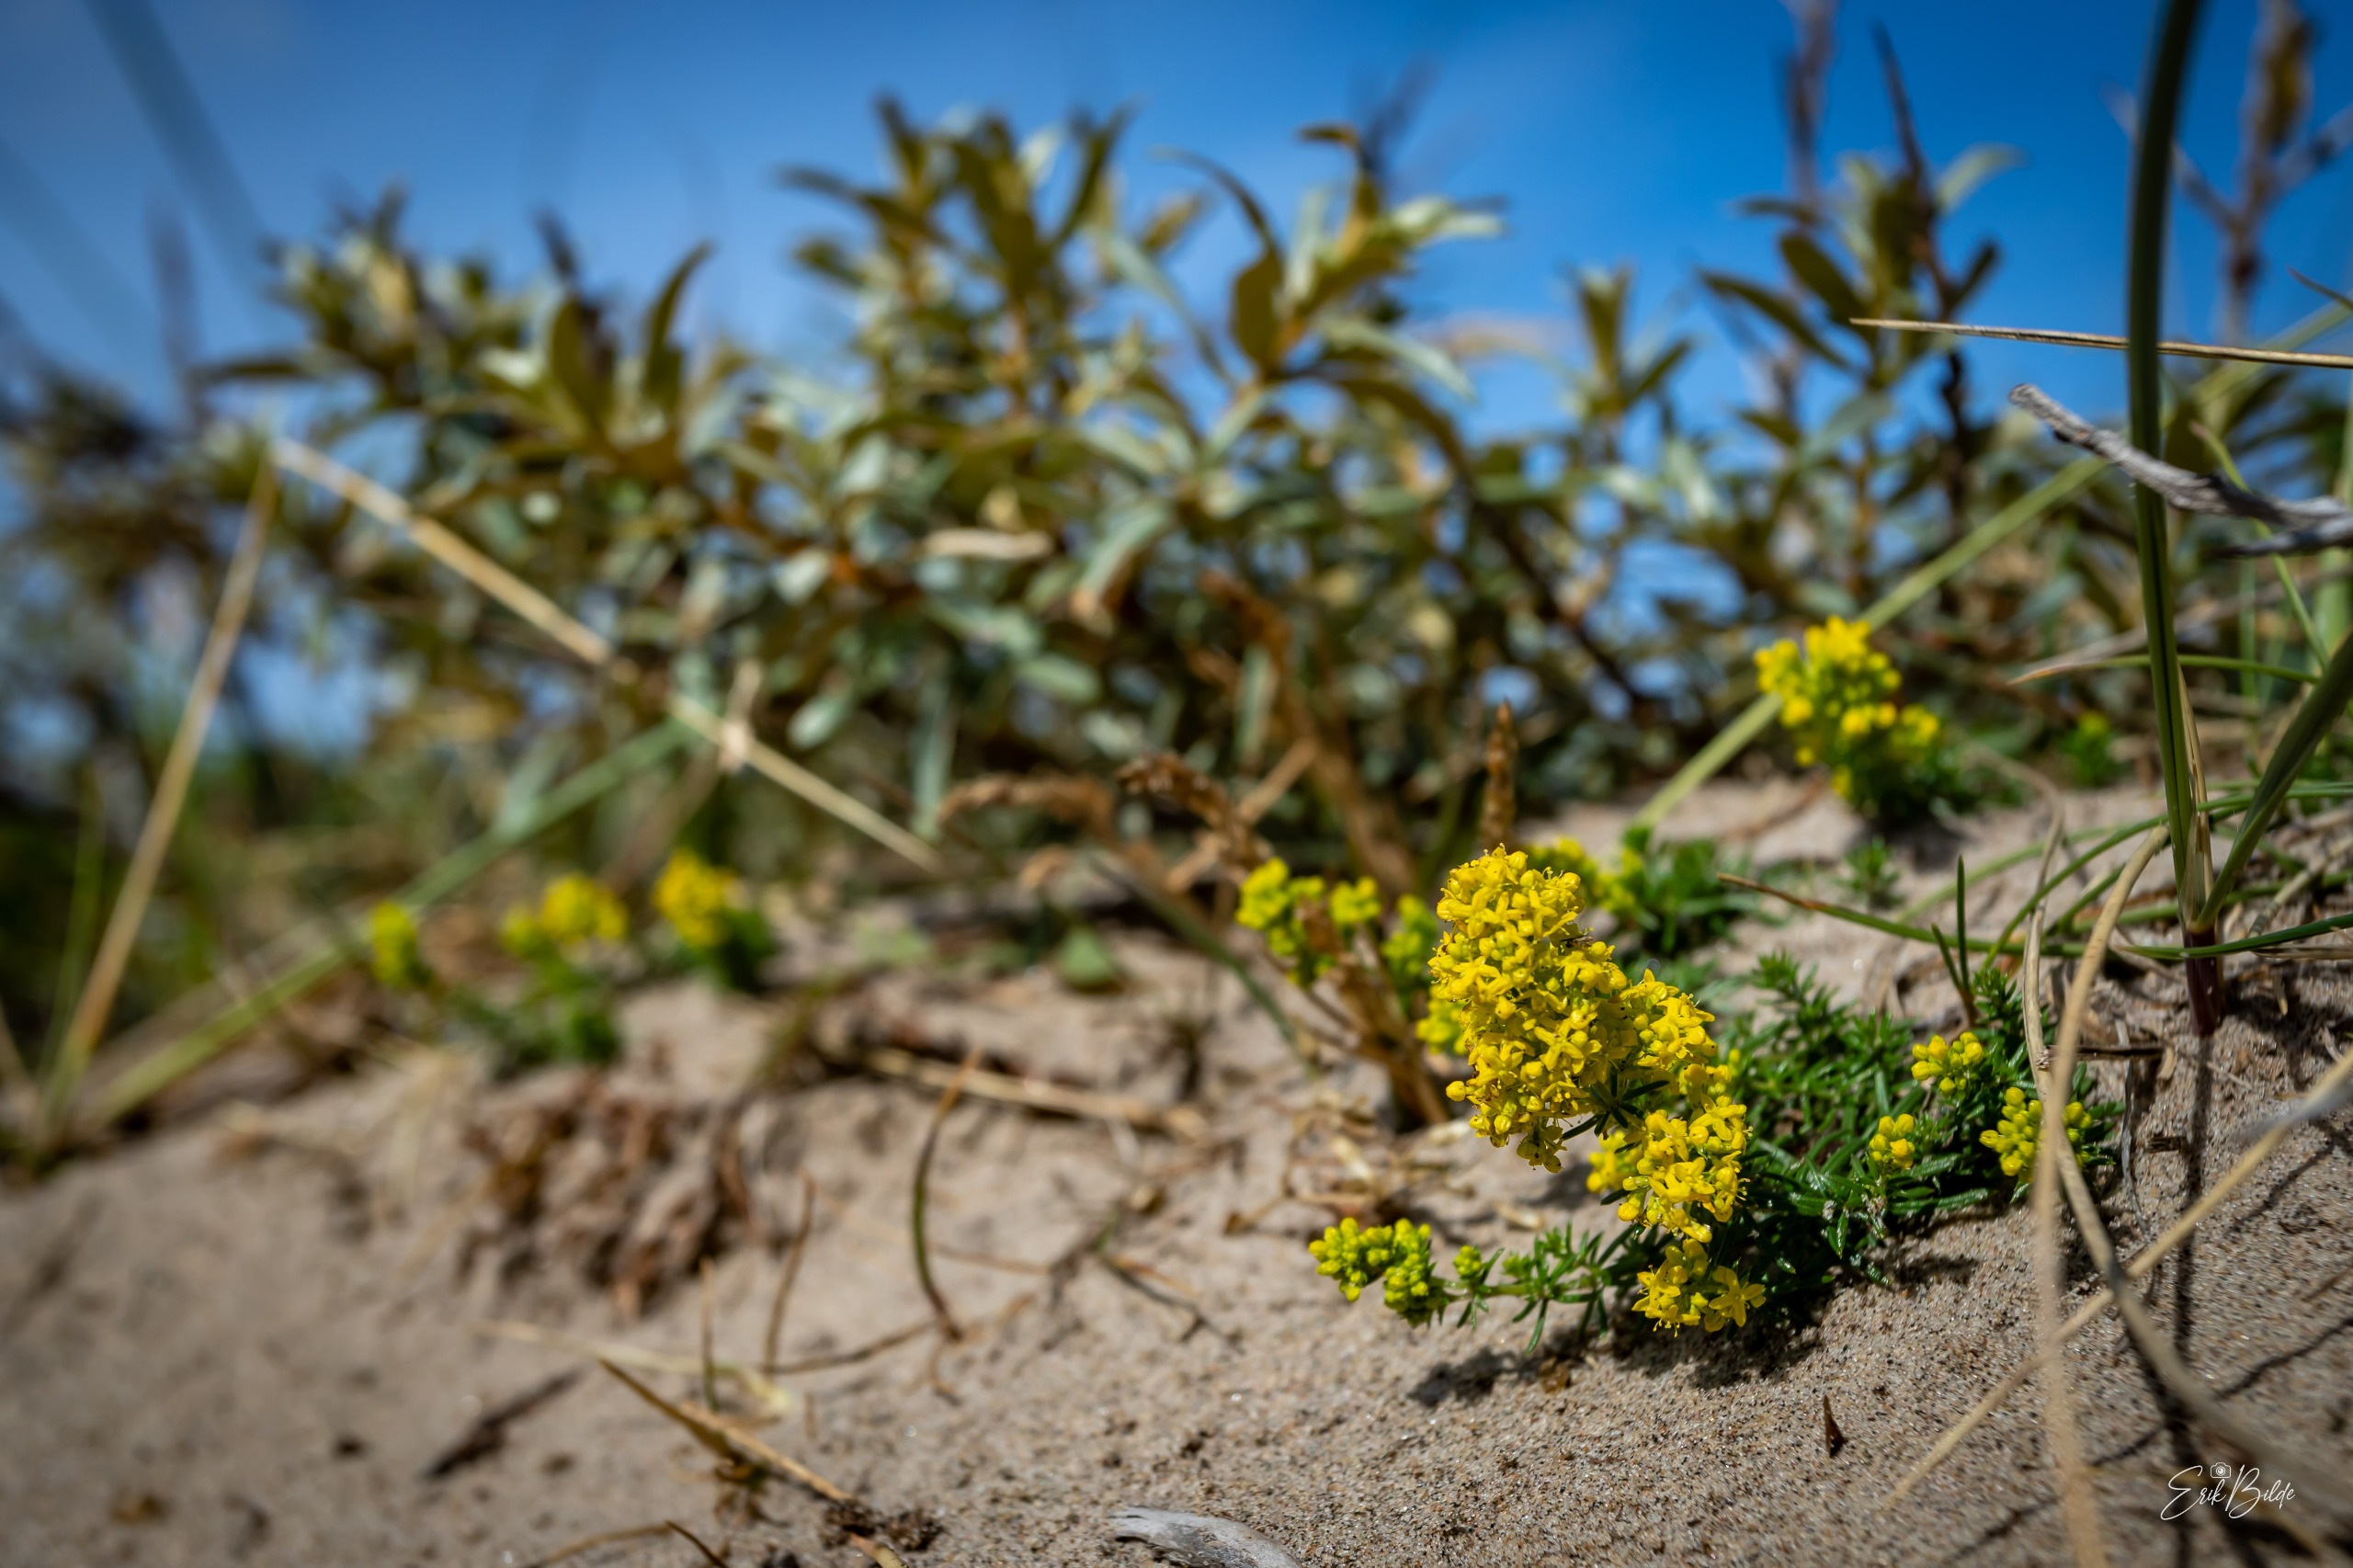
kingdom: Plantae
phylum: Tracheophyta
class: Magnoliopsida
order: Gentianales
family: Rubiaceae
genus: Galium
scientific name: Galium verum
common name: Gul snerre
